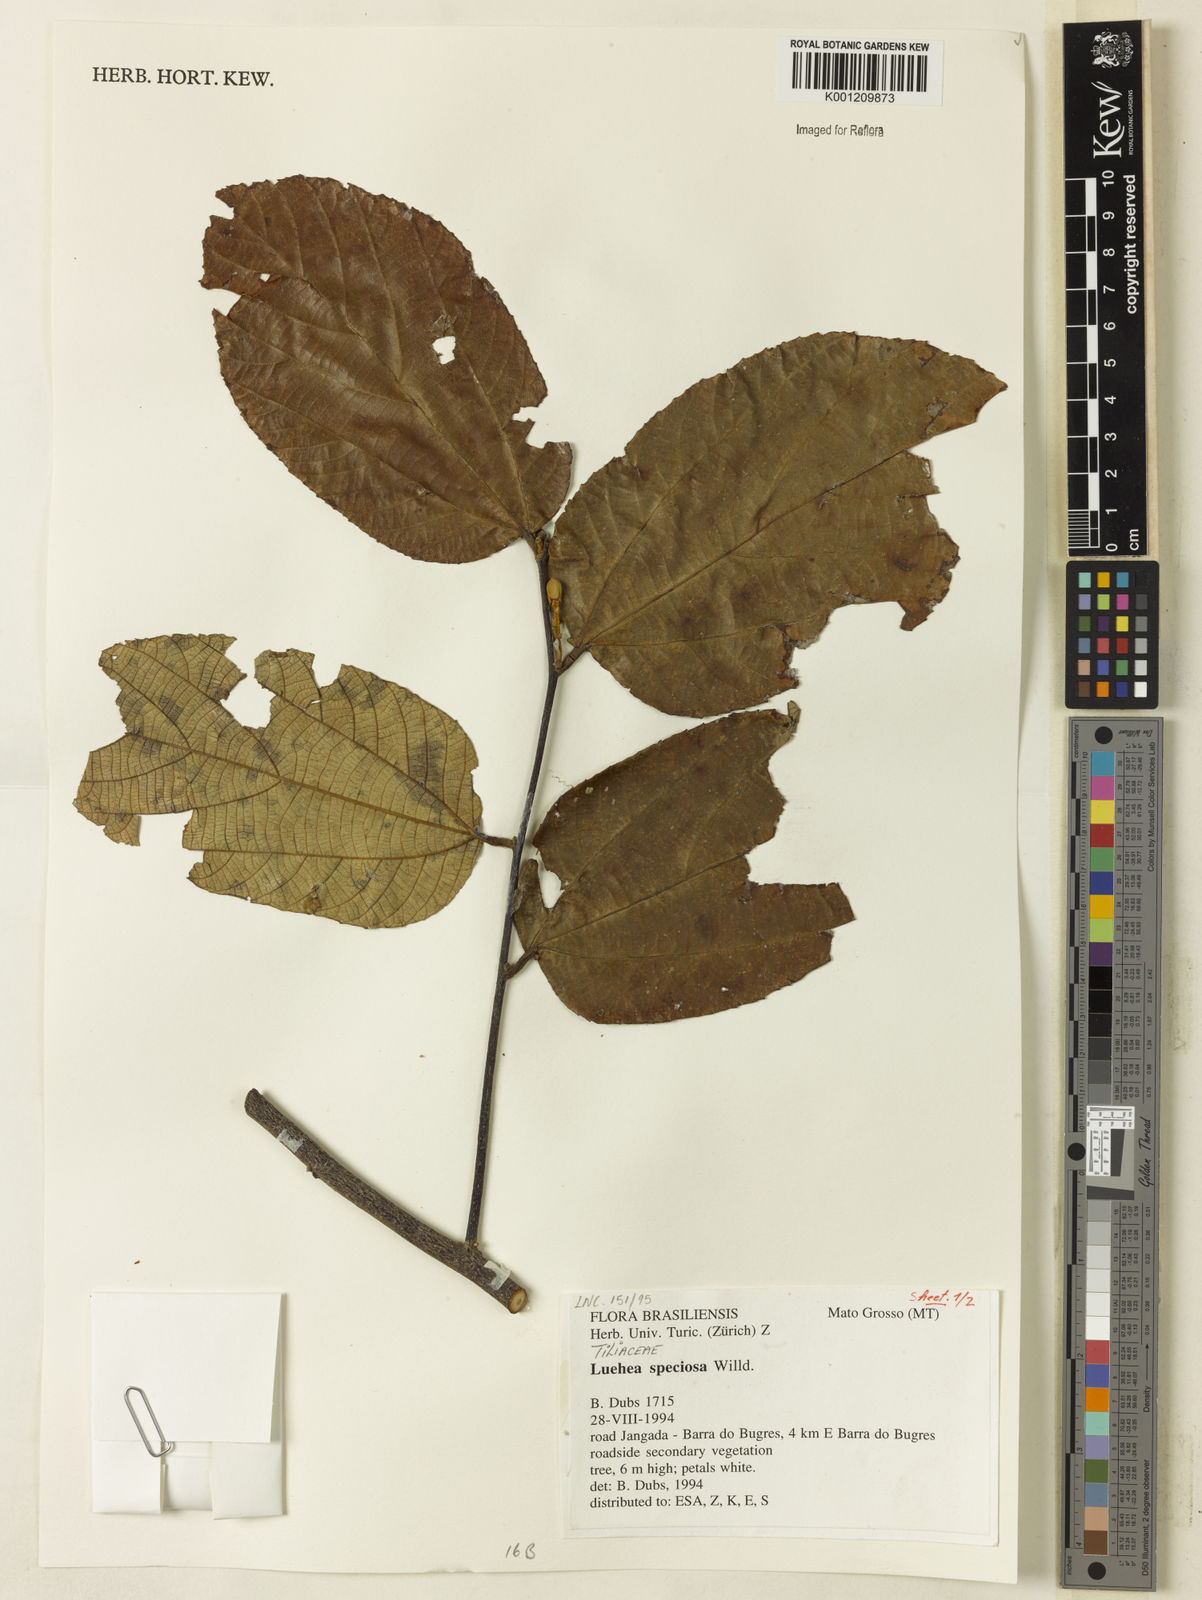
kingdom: Plantae
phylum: Tracheophyta
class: Magnoliopsida
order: Malvales
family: Malvaceae
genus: Luehea
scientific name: Luehea speciosa
